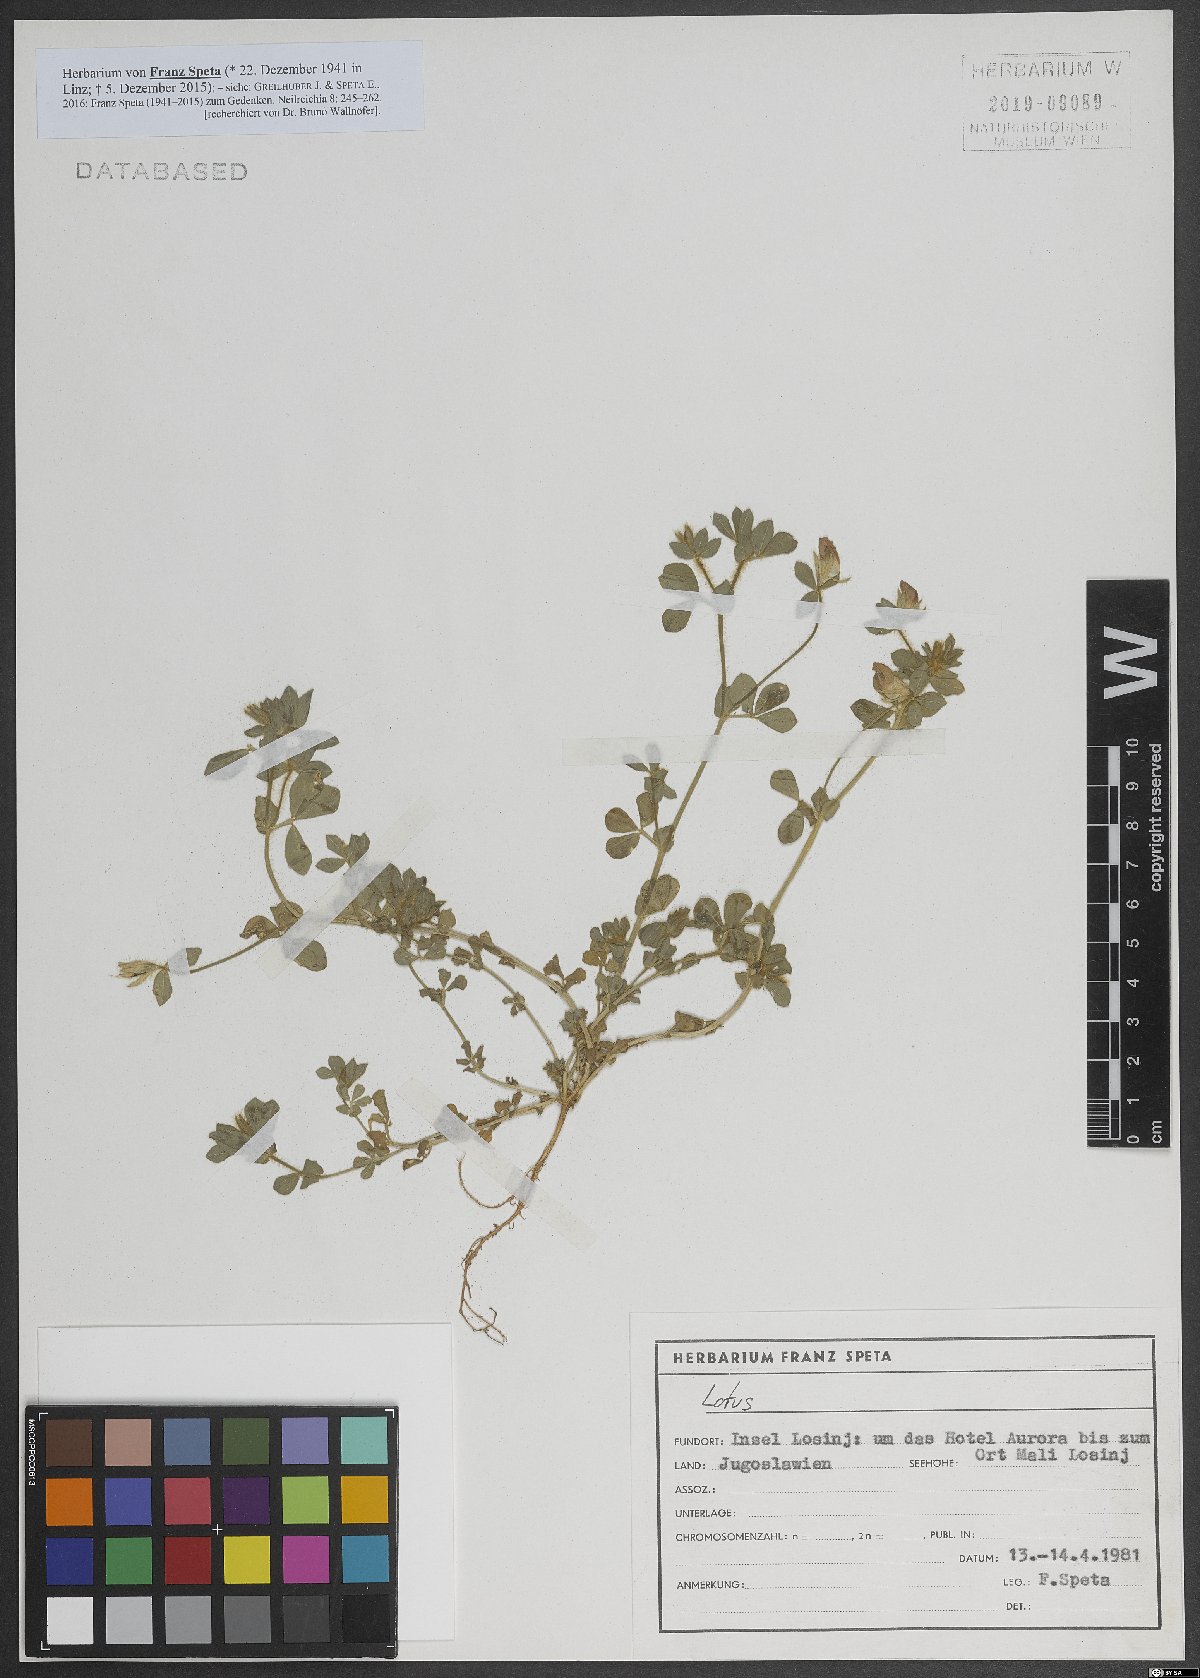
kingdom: Plantae
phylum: Tracheophyta
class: Magnoliopsida
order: Fabales
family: Fabaceae
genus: Lotus
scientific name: Lotus
